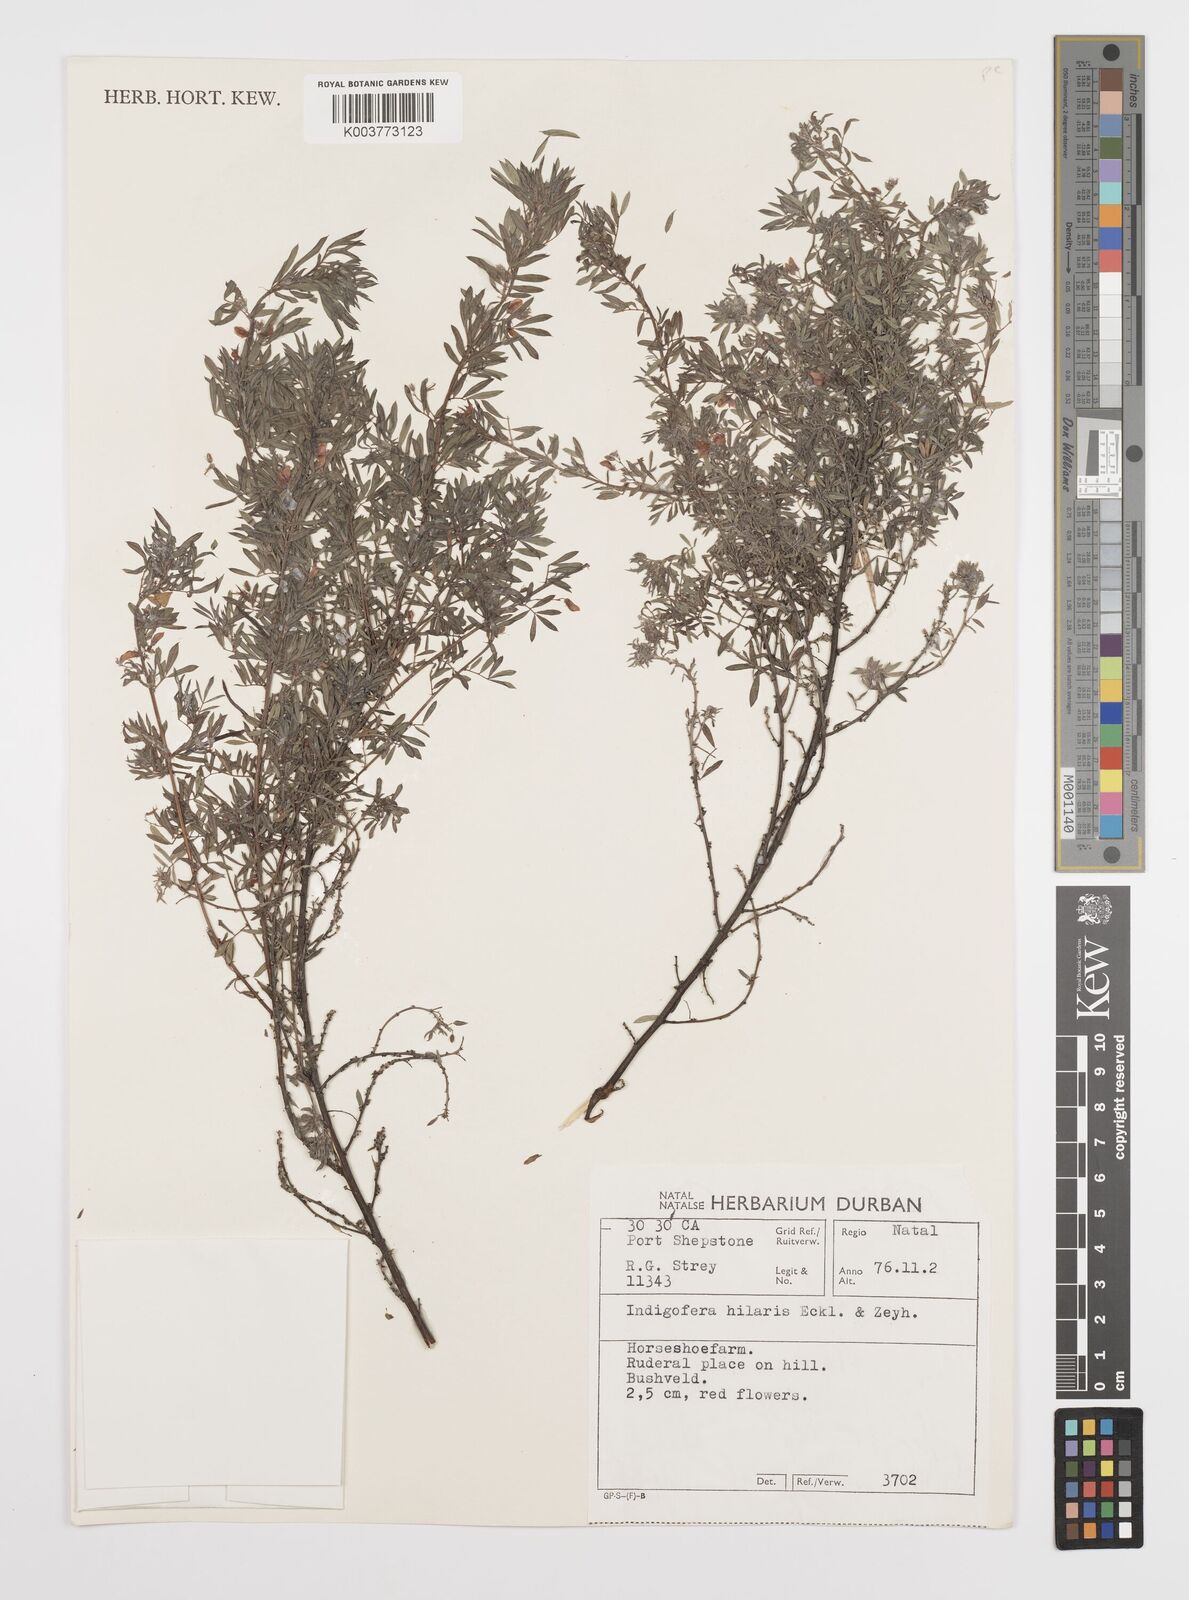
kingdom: Plantae
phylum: Tracheophyta
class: Magnoliopsida
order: Fabales
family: Fabaceae
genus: Indigofera
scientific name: Indigofera
